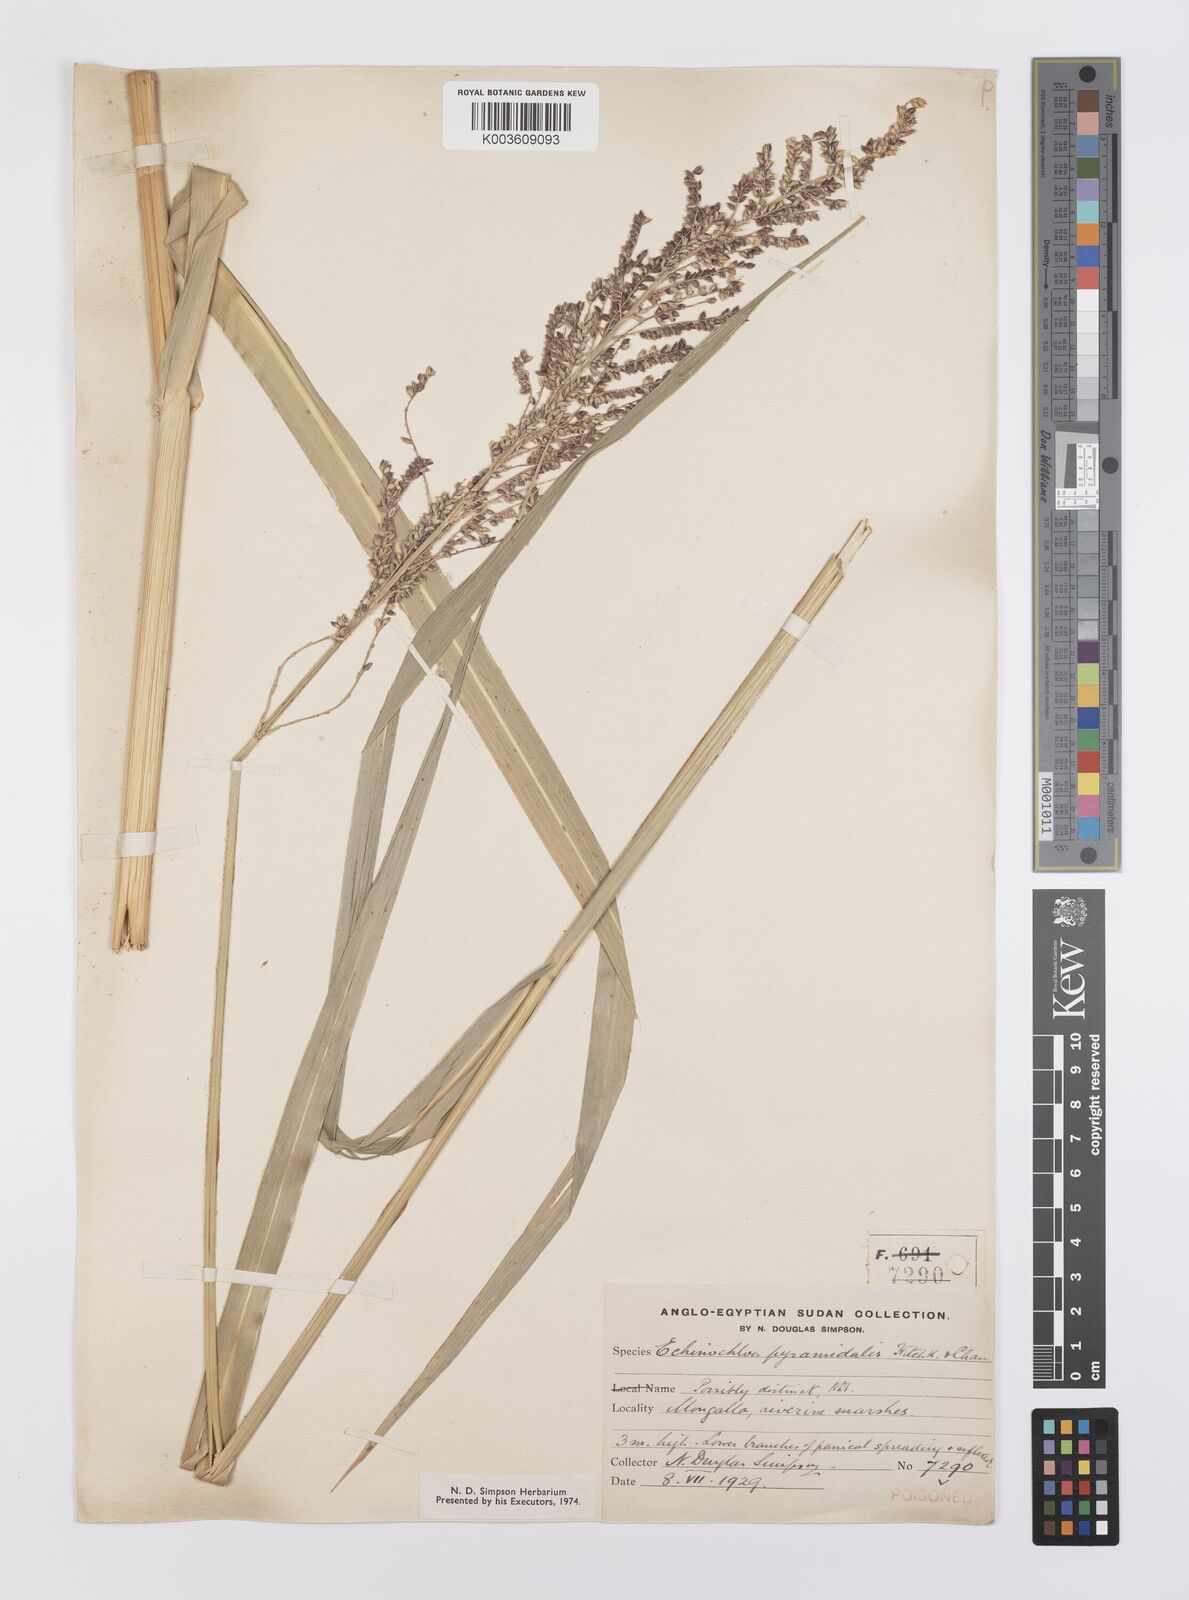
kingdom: Plantae
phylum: Tracheophyta
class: Liliopsida
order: Poales
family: Poaceae
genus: Echinochloa
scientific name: Echinochloa pyramidalis
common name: Antelope grass
